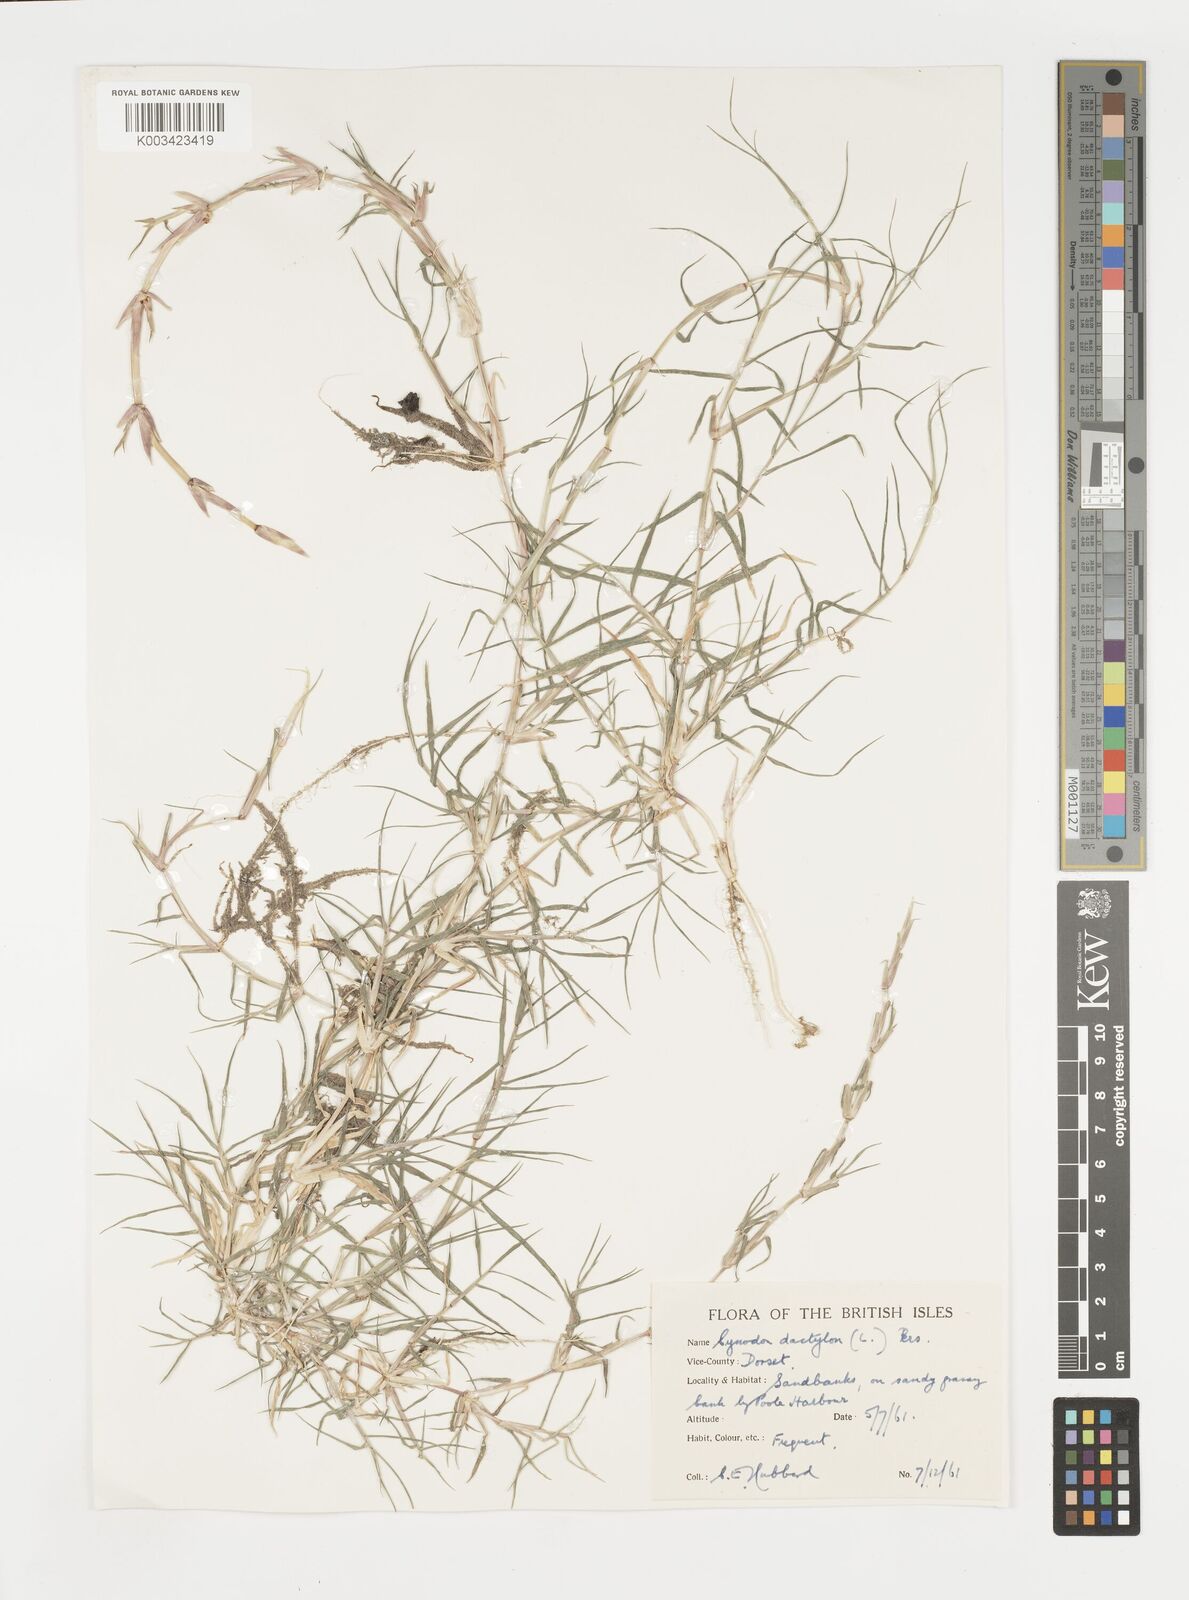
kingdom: Plantae
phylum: Tracheophyta
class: Liliopsida
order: Poales
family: Poaceae
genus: Cynodon
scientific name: Cynodon dactylon
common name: Bermuda grass
